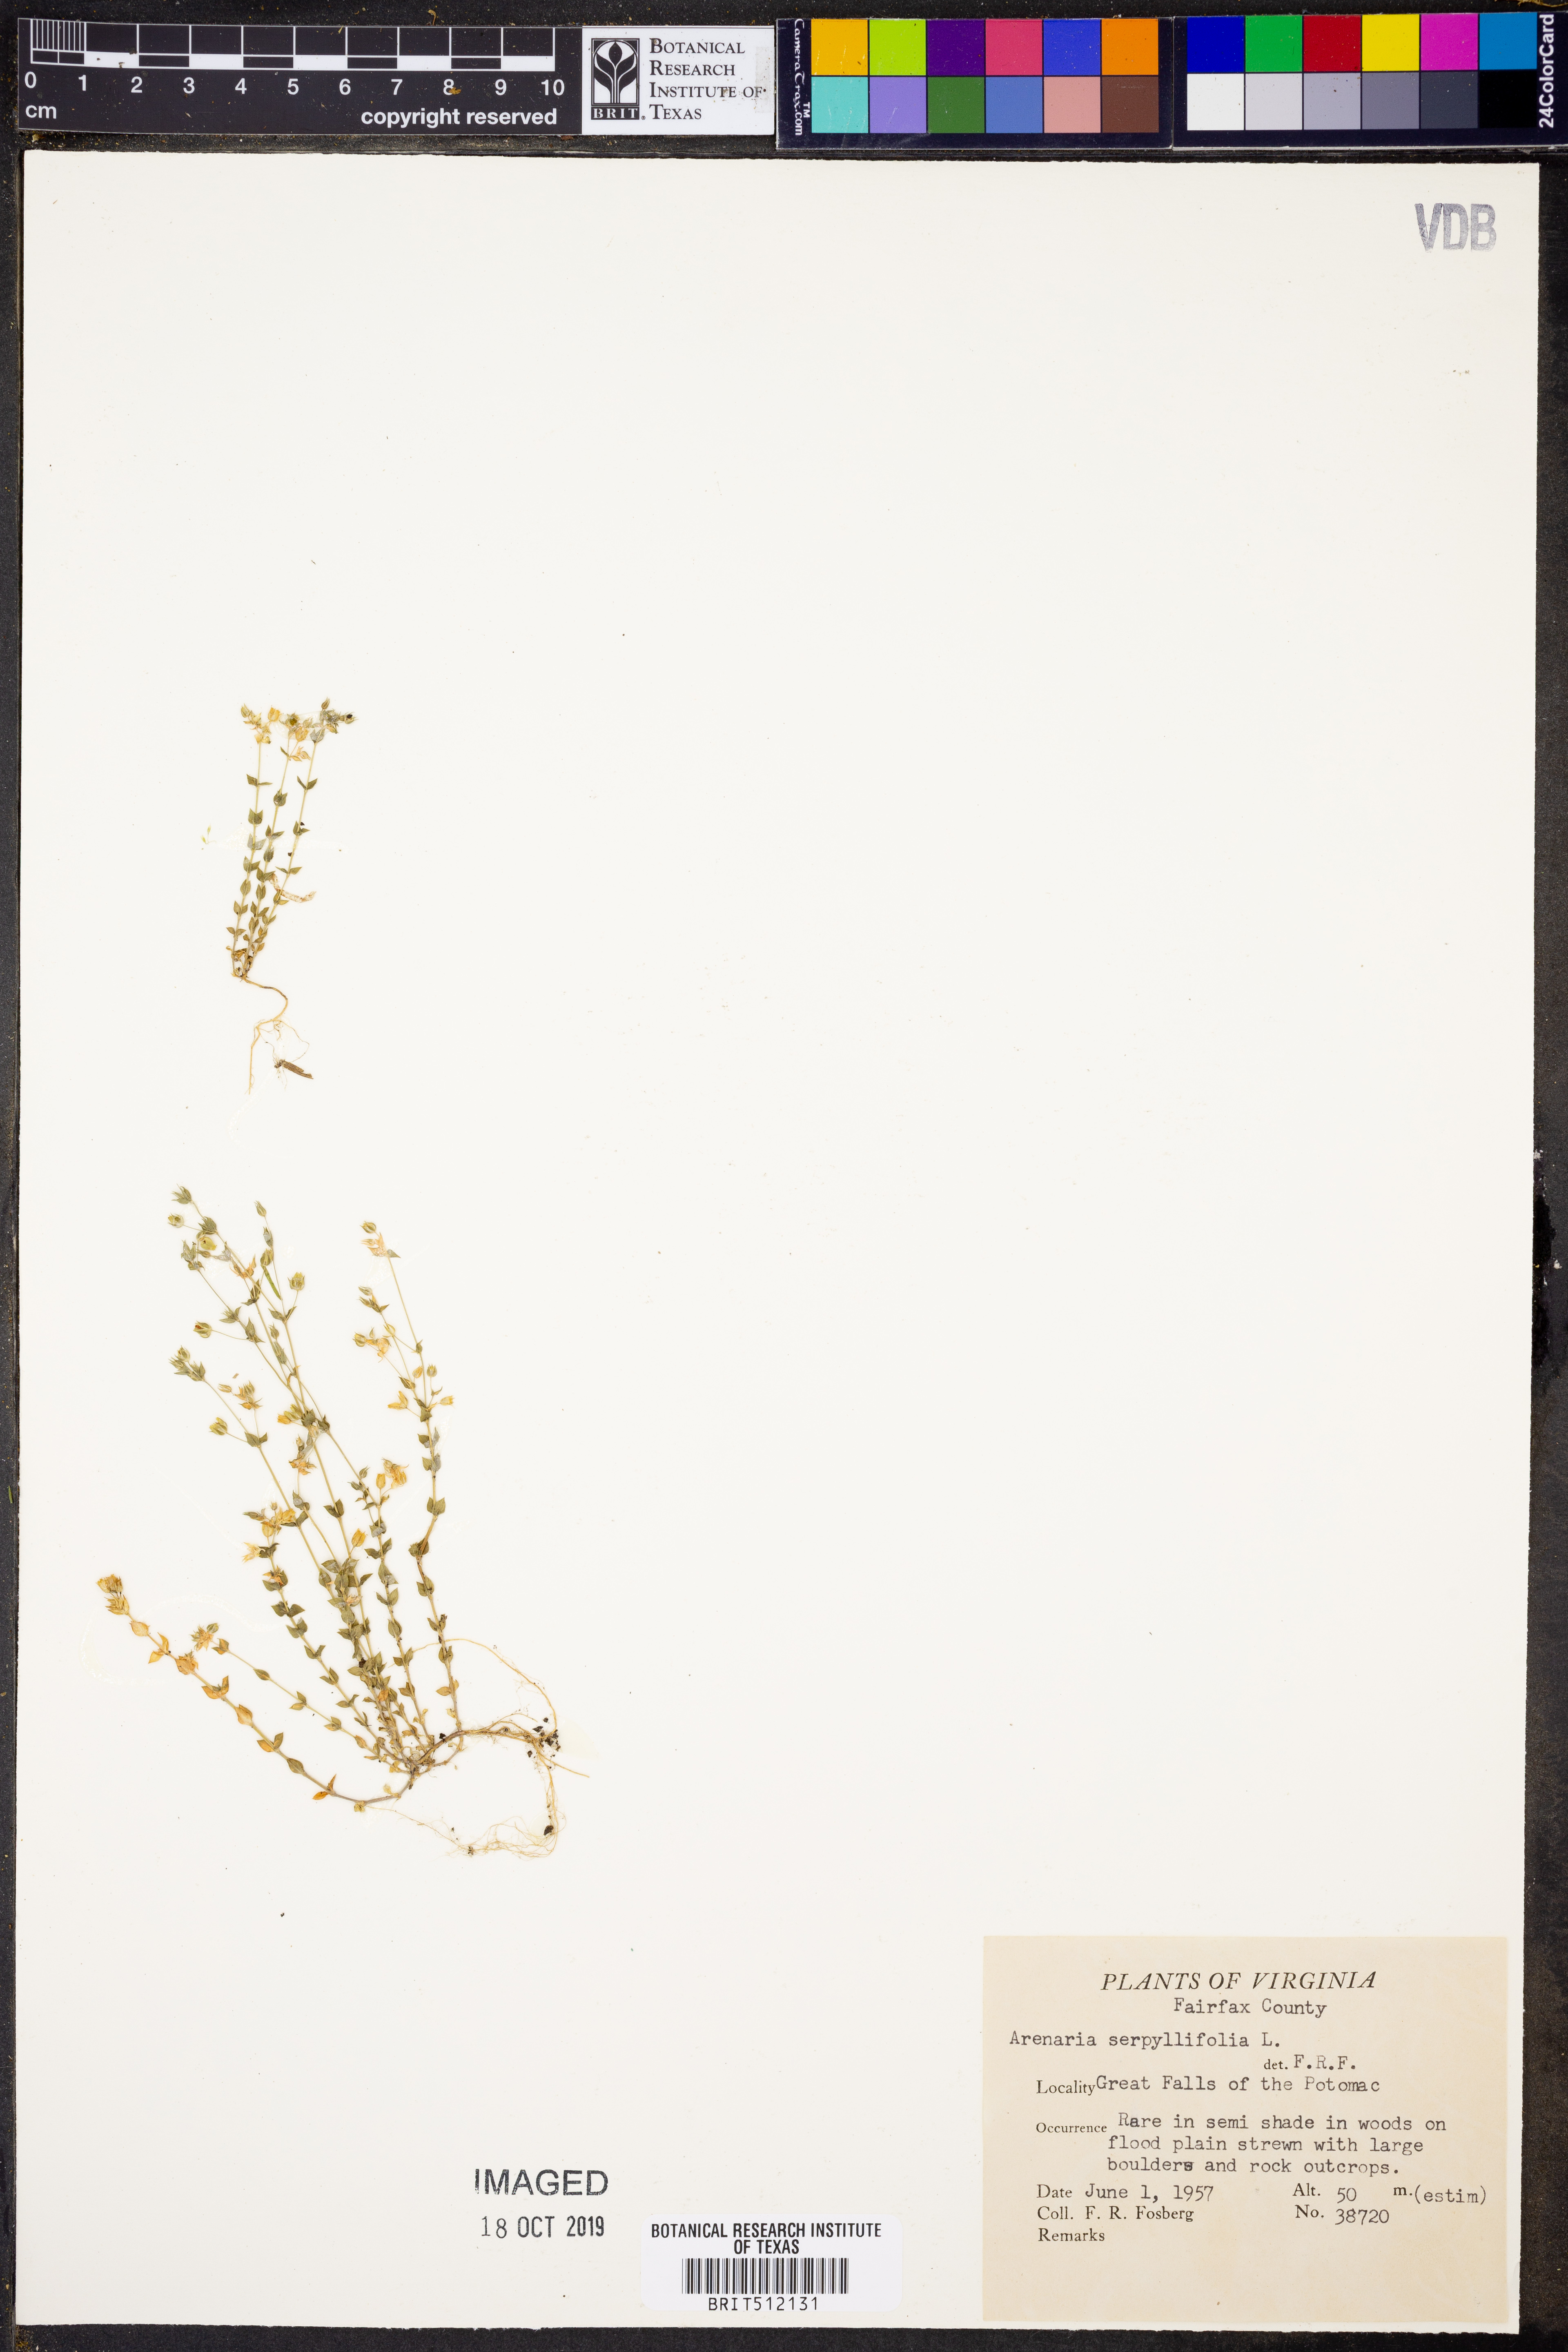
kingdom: Plantae
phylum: Tracheophyta
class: Magnoliopsida
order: Caryophyllales
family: Caryophyllaceae
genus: Arenaria
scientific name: Arenaria serpyllifolia
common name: Thyme-leaved sandwort
